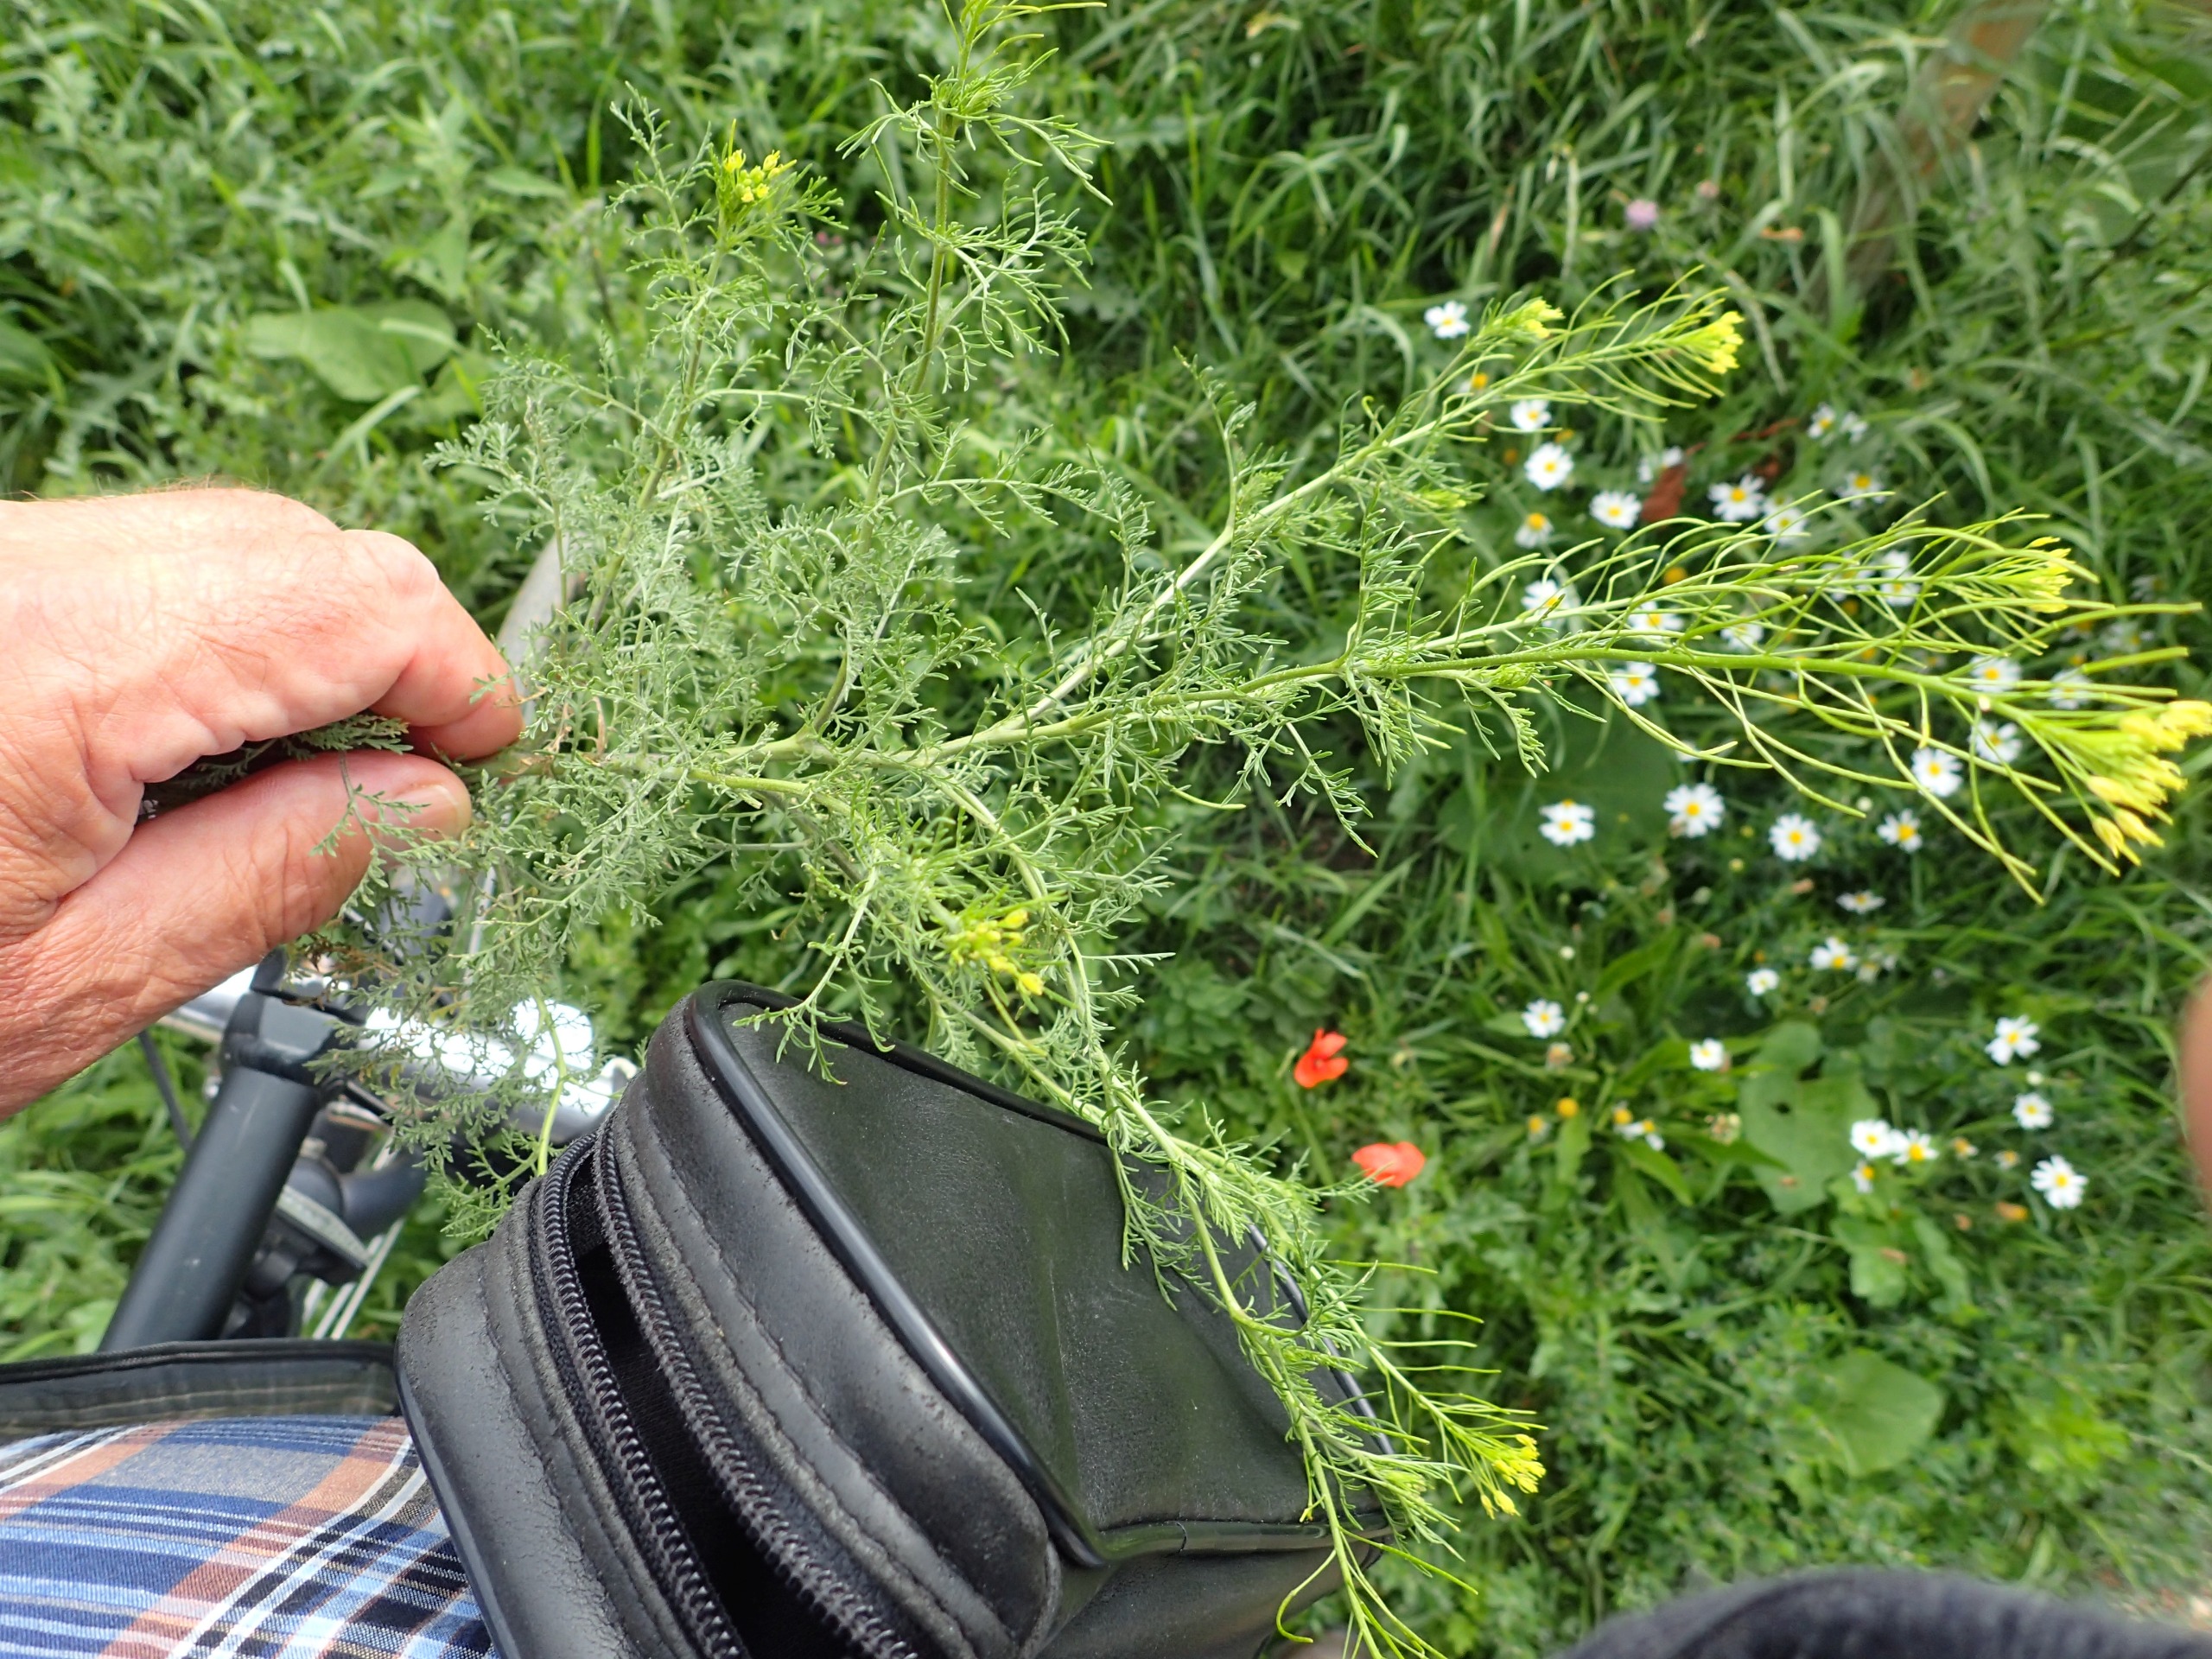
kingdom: Plantae
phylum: Tracheophyta
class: Magnoliopsida
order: Brassicales
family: Brassicaceae
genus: Descurainia
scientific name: Descurainia sophia
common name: Finbladet vejsennep
